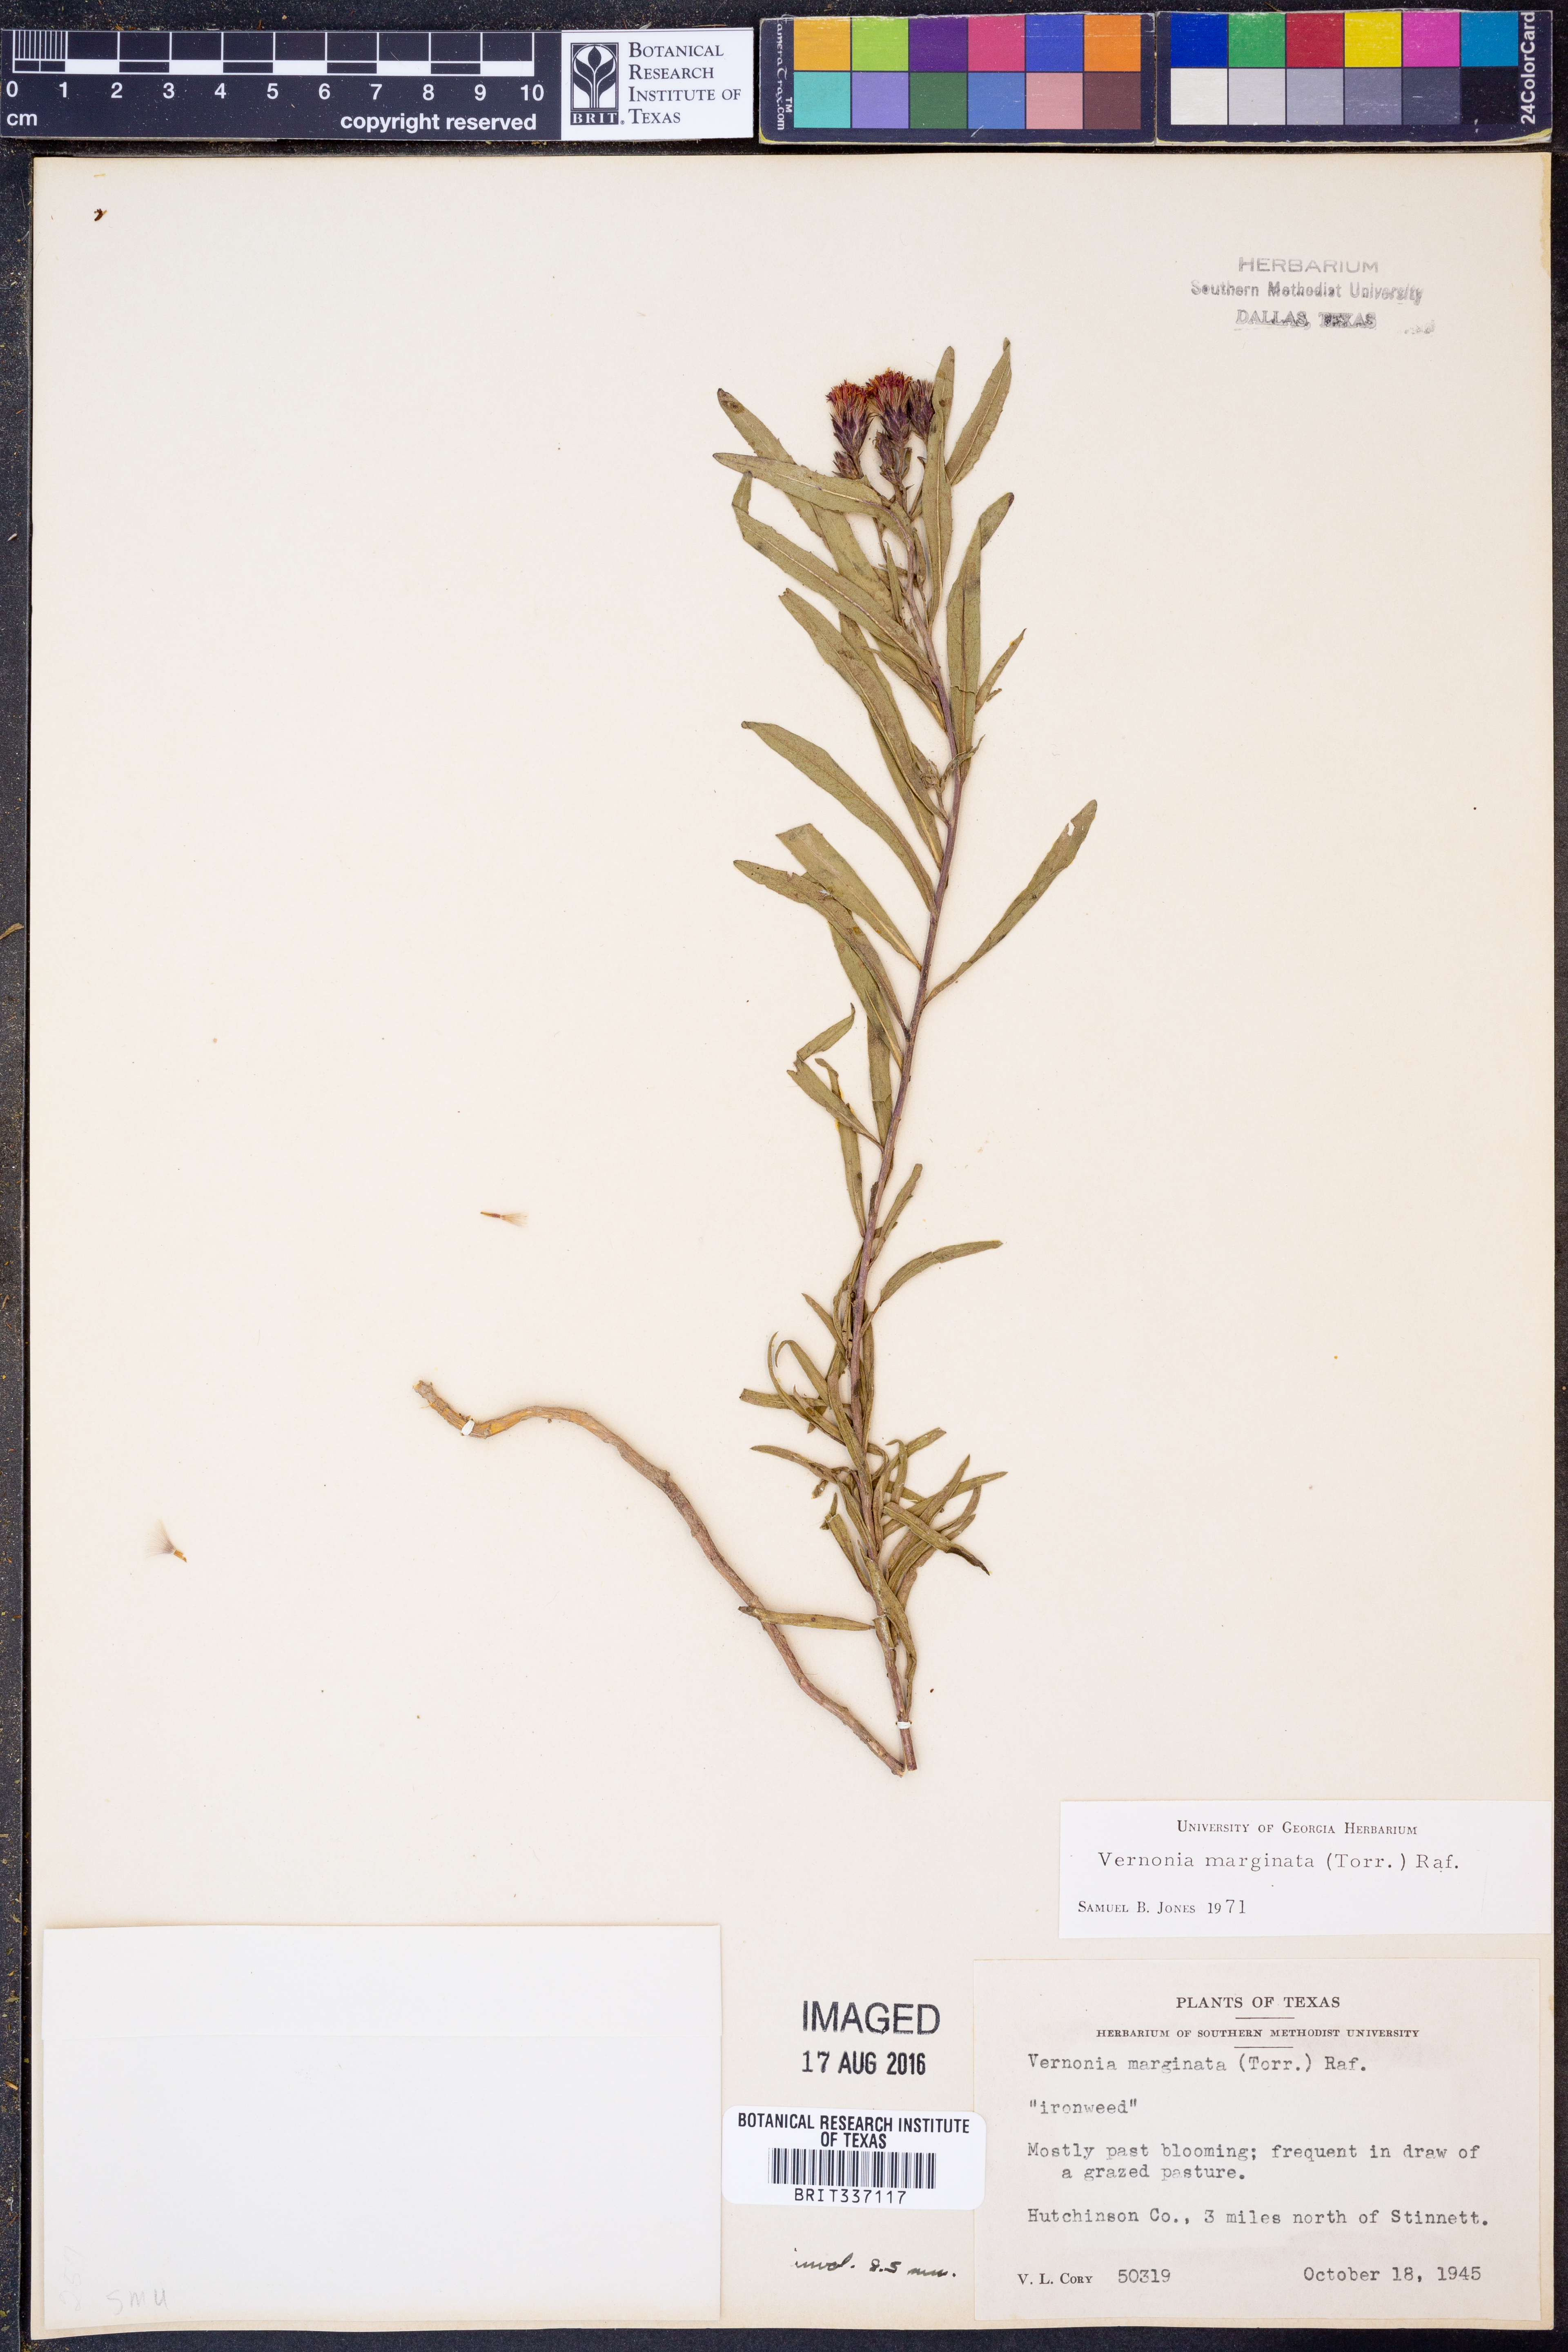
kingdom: Plantae
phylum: Tracheophyta
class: Magnoliopsida
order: Asterales
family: Asteraceae
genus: Vernonia
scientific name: Vernonia marginata
